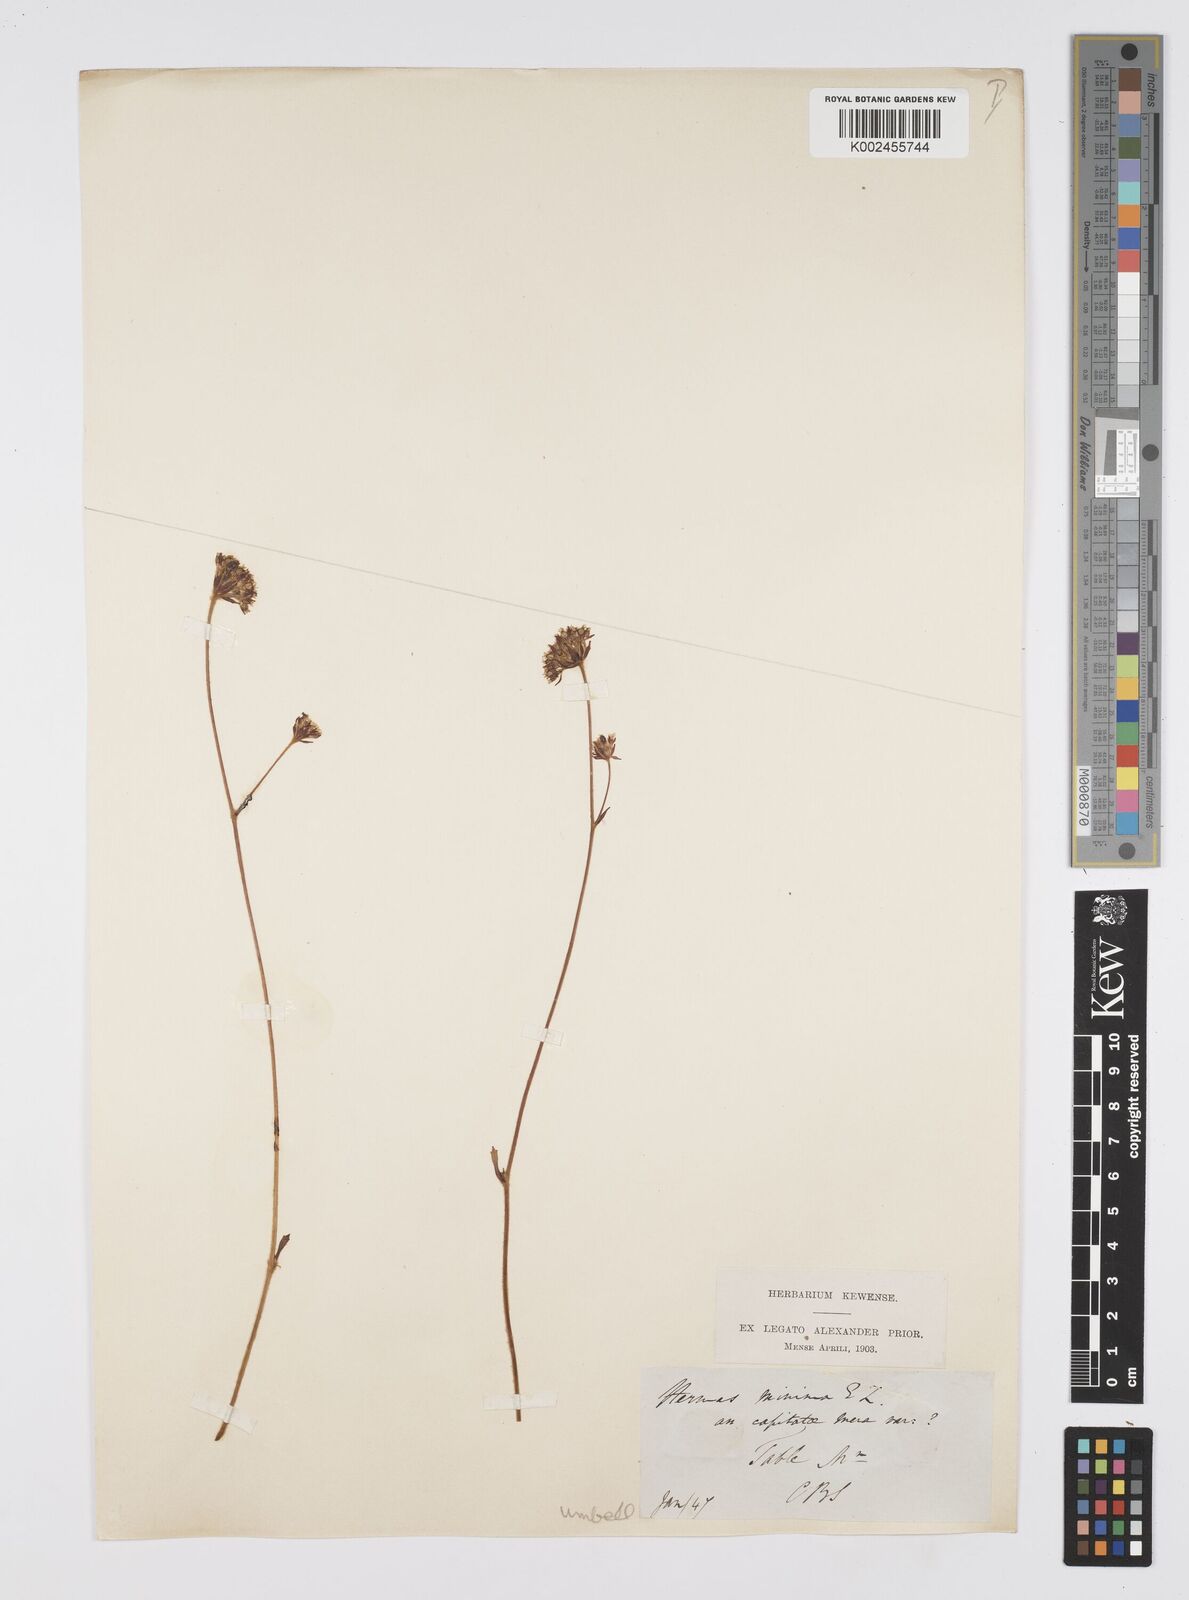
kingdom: Plantae
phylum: Tracheophyta
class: Magnoliopsida
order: Apiales
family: Apiaceae
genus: Hermas
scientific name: Hermas capitata
